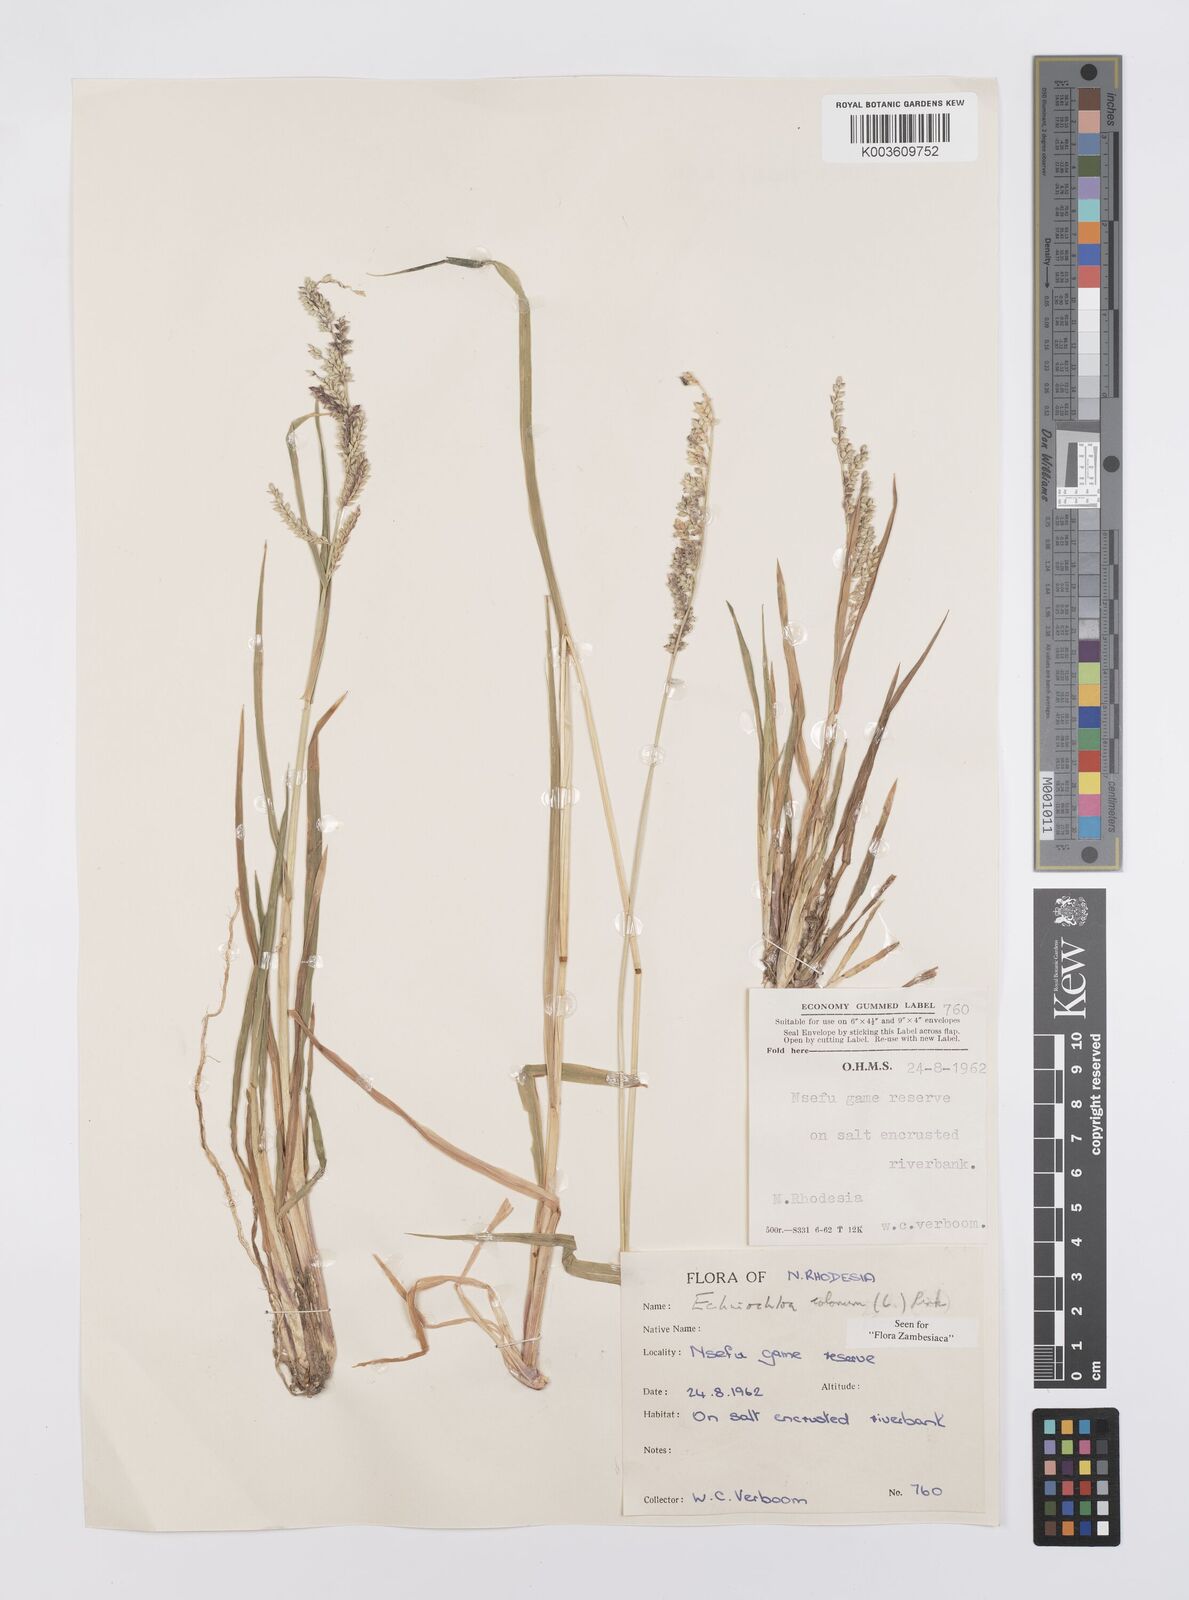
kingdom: Plantae
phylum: Tracheophyta
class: Liliopsida
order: Poales
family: Poaceae
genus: Echinochloa
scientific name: Echinochloa colonum
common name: Jungle rice
